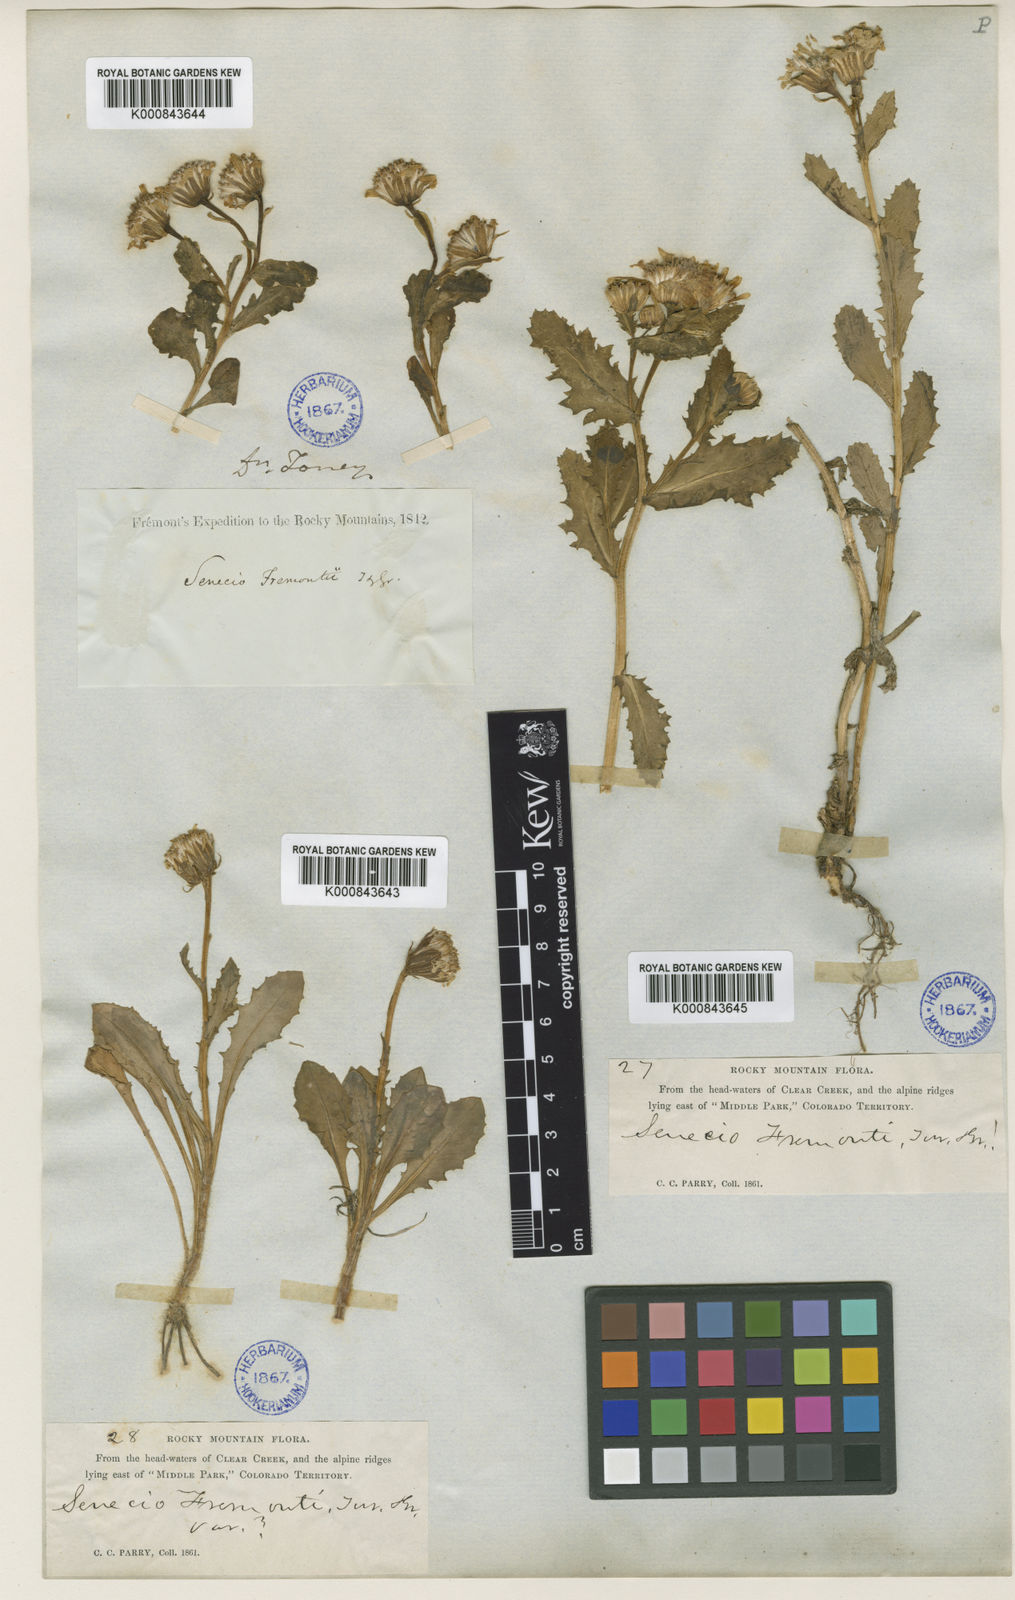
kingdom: Plantae
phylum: Tracheophyta
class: Magnoliopsida
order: Asterales
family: Asteraceae
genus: Senecio
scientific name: Senecio fremontii
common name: Fremont's groundsel
